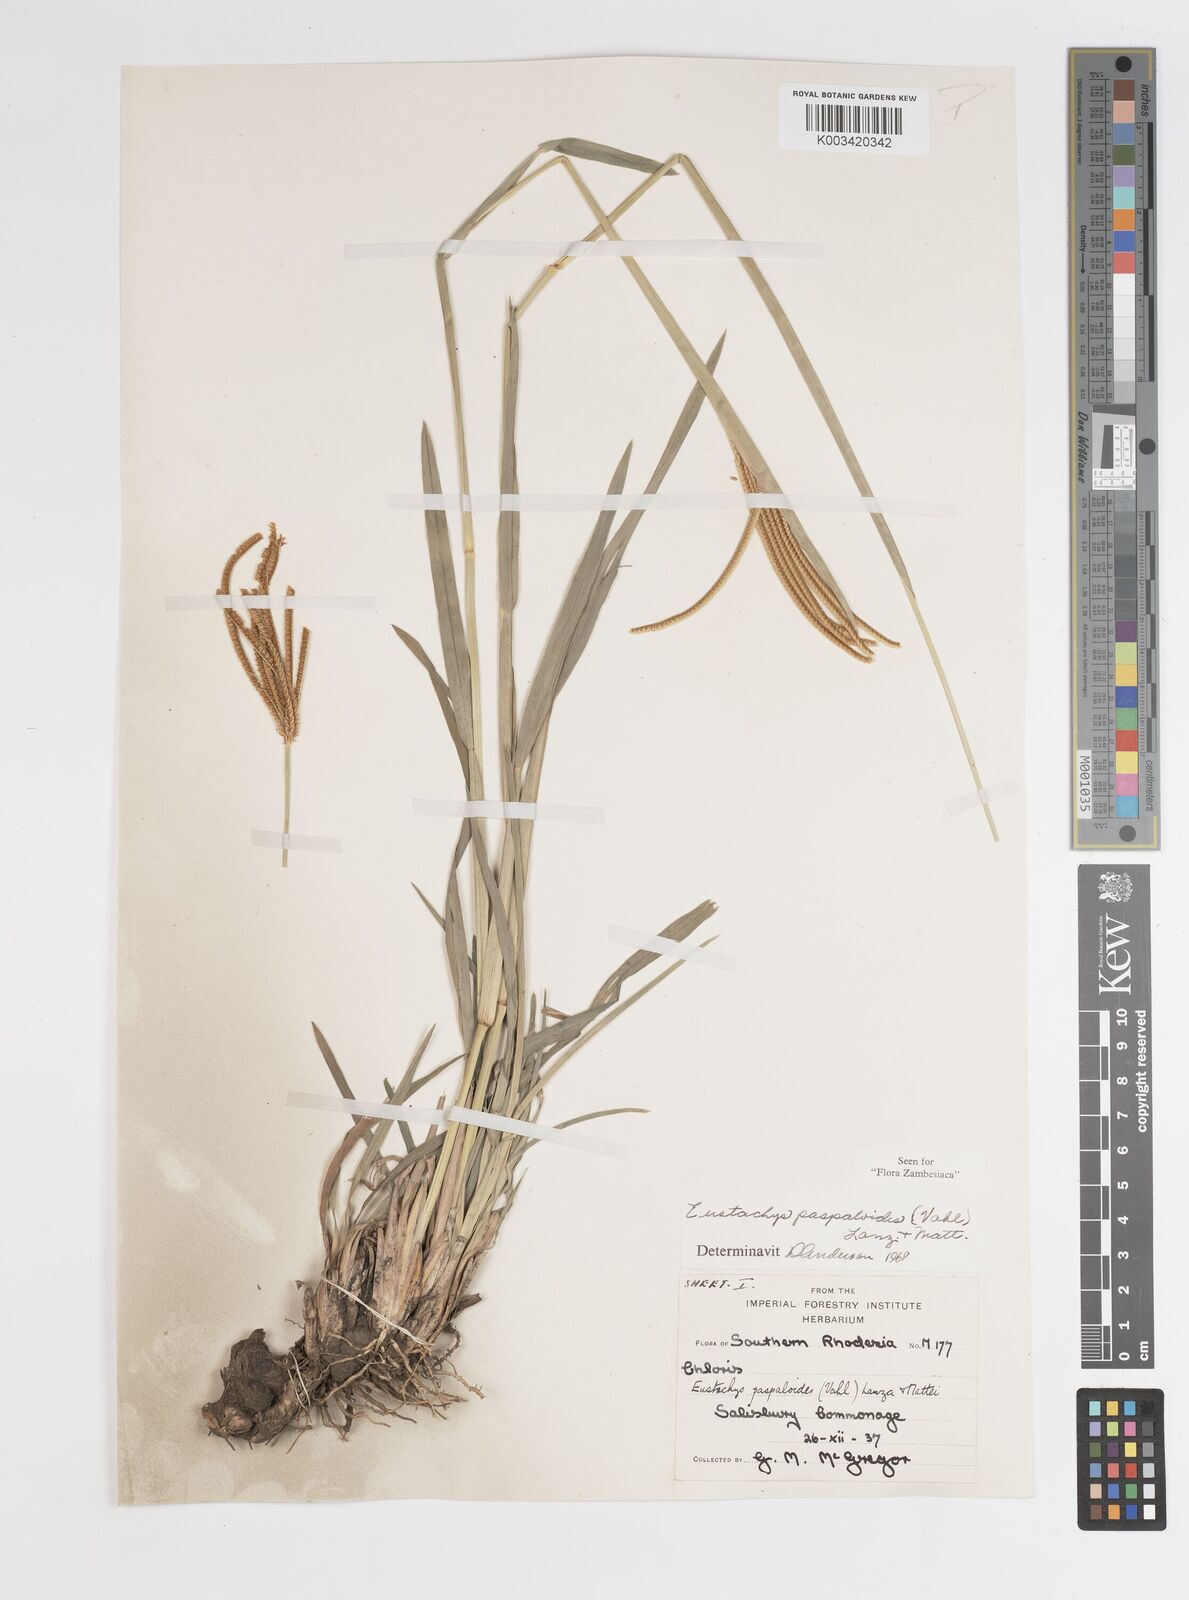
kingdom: Plantae
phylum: Tracheophyta
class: Liliopsida
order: Poales
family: Poaceae
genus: Eustachys
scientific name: Eustachys paspaloides
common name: Caribbean fingergrass
